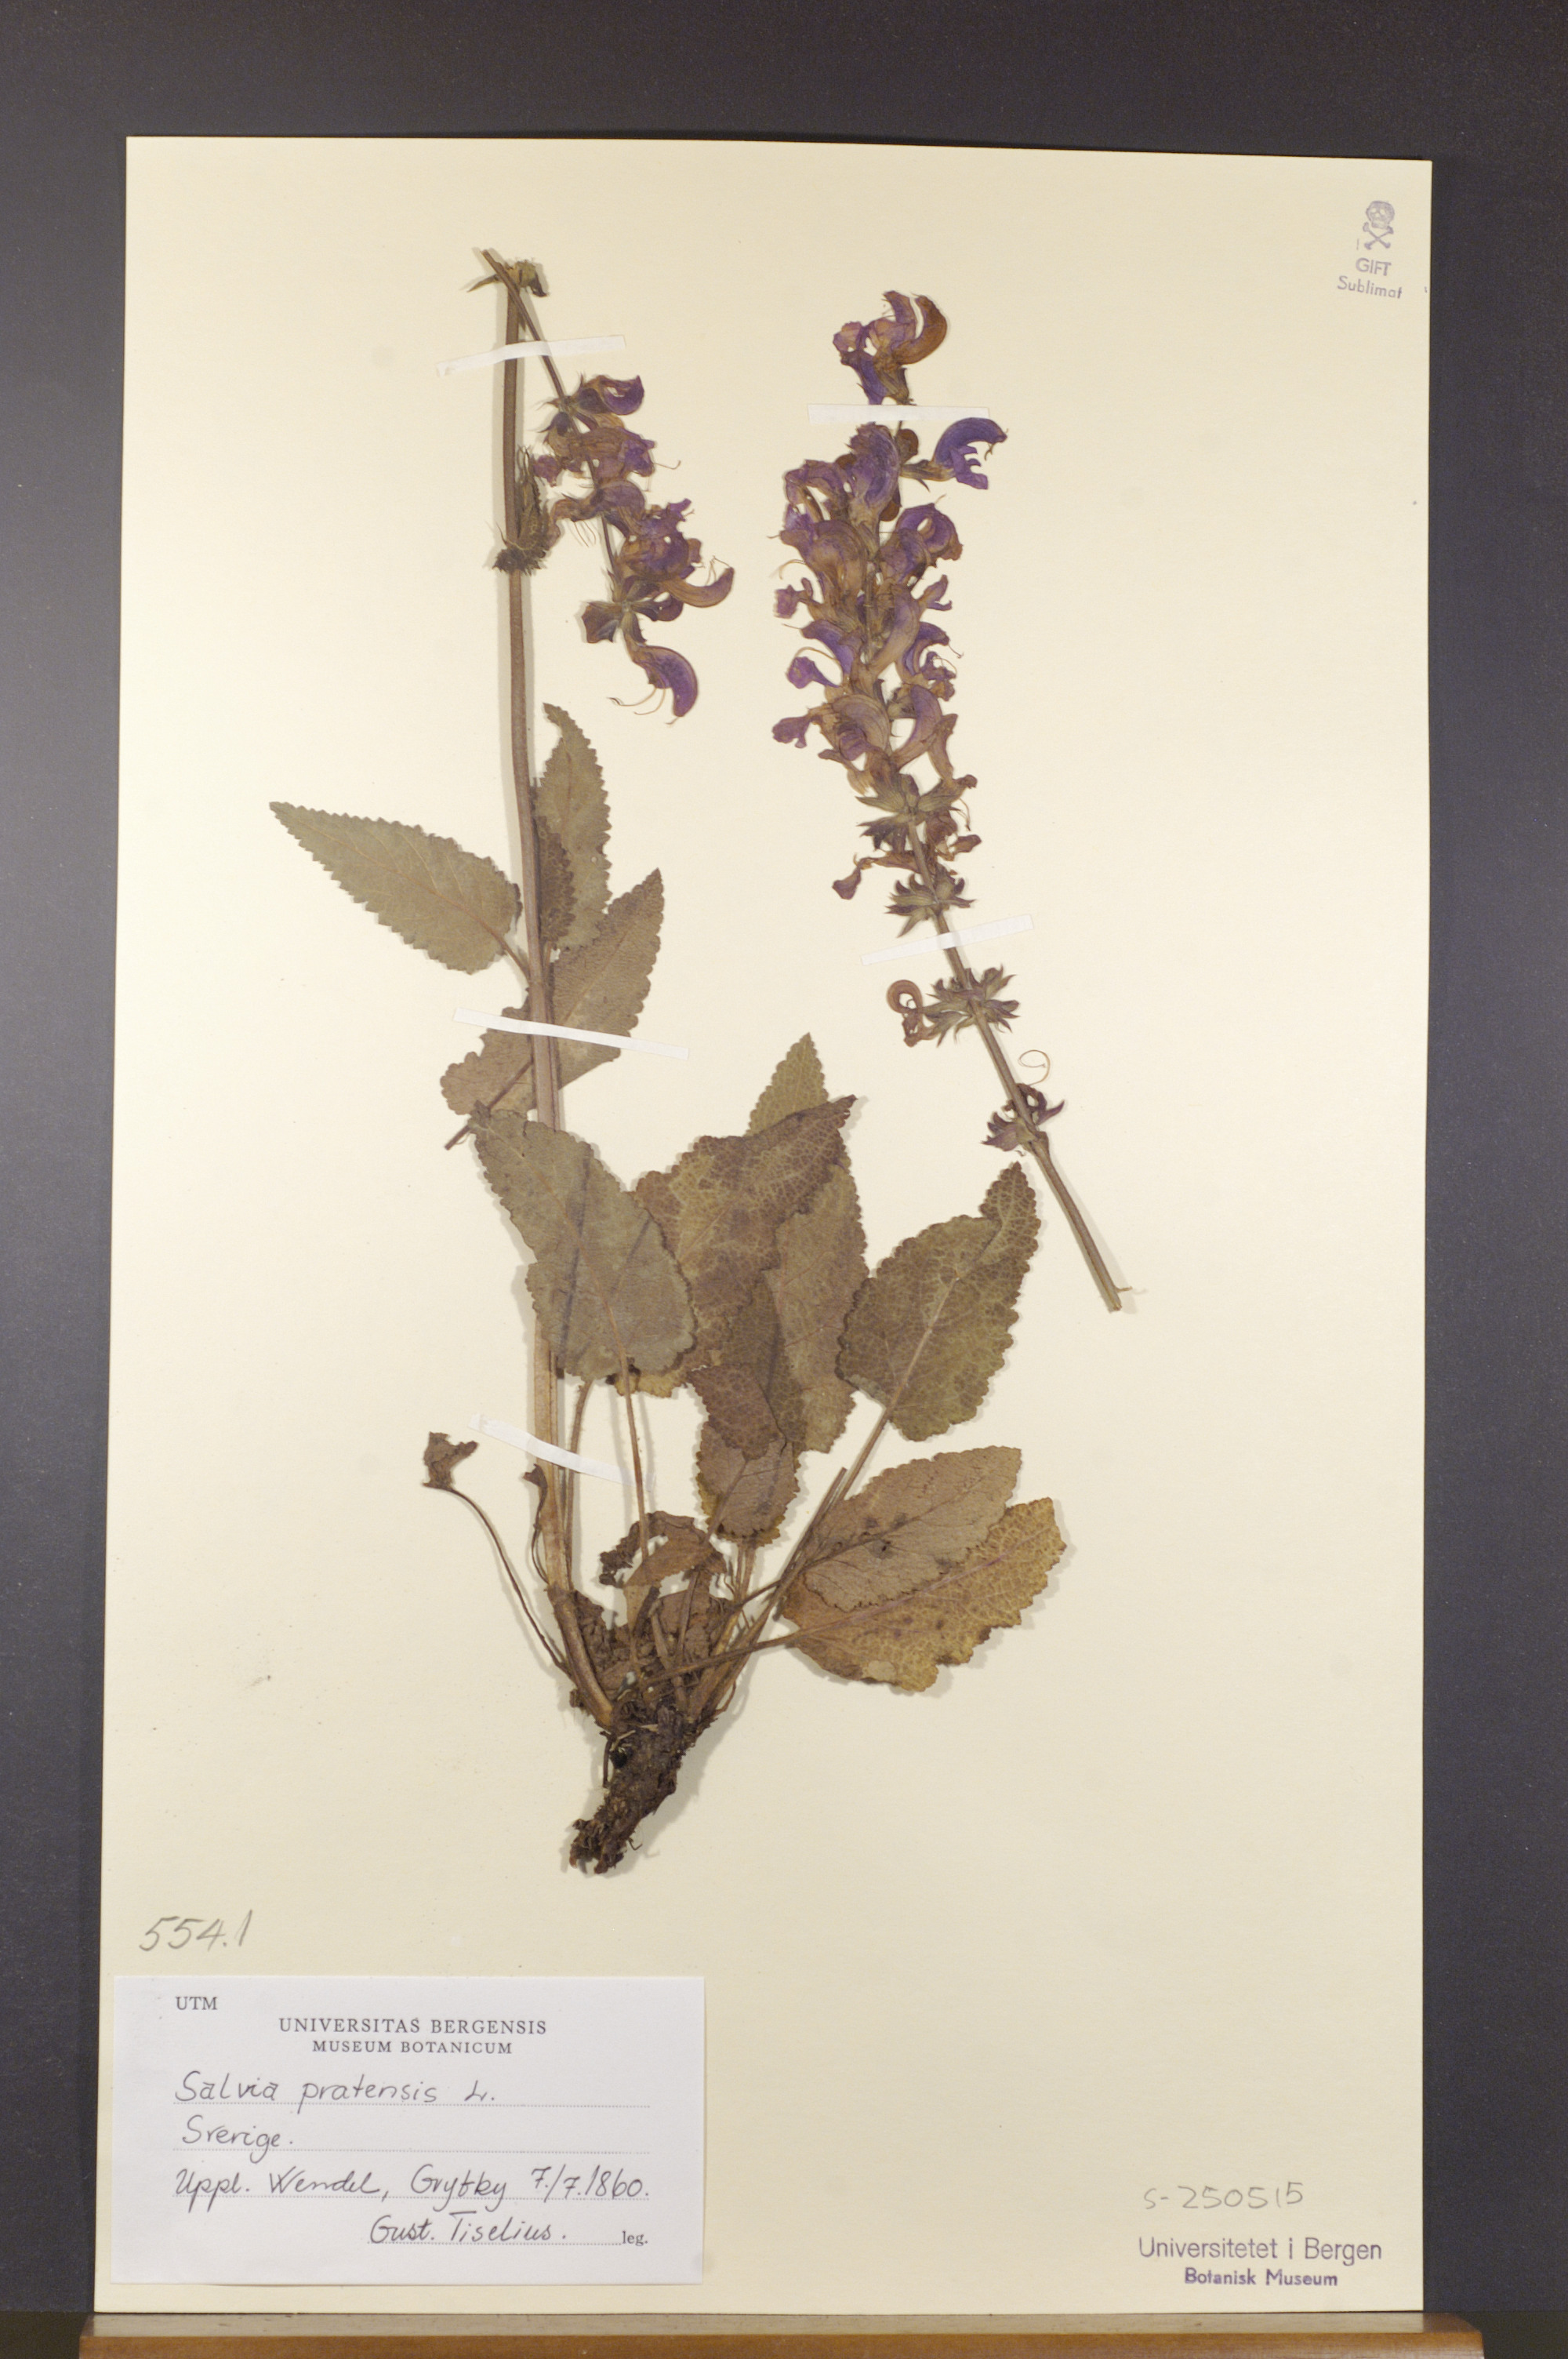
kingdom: Plantae
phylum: Tracheophyta
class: Magnoliopsida
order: Lamiales
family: Lamiaceae
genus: Salvia
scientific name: Salvia pratensis
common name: Meadow sage
